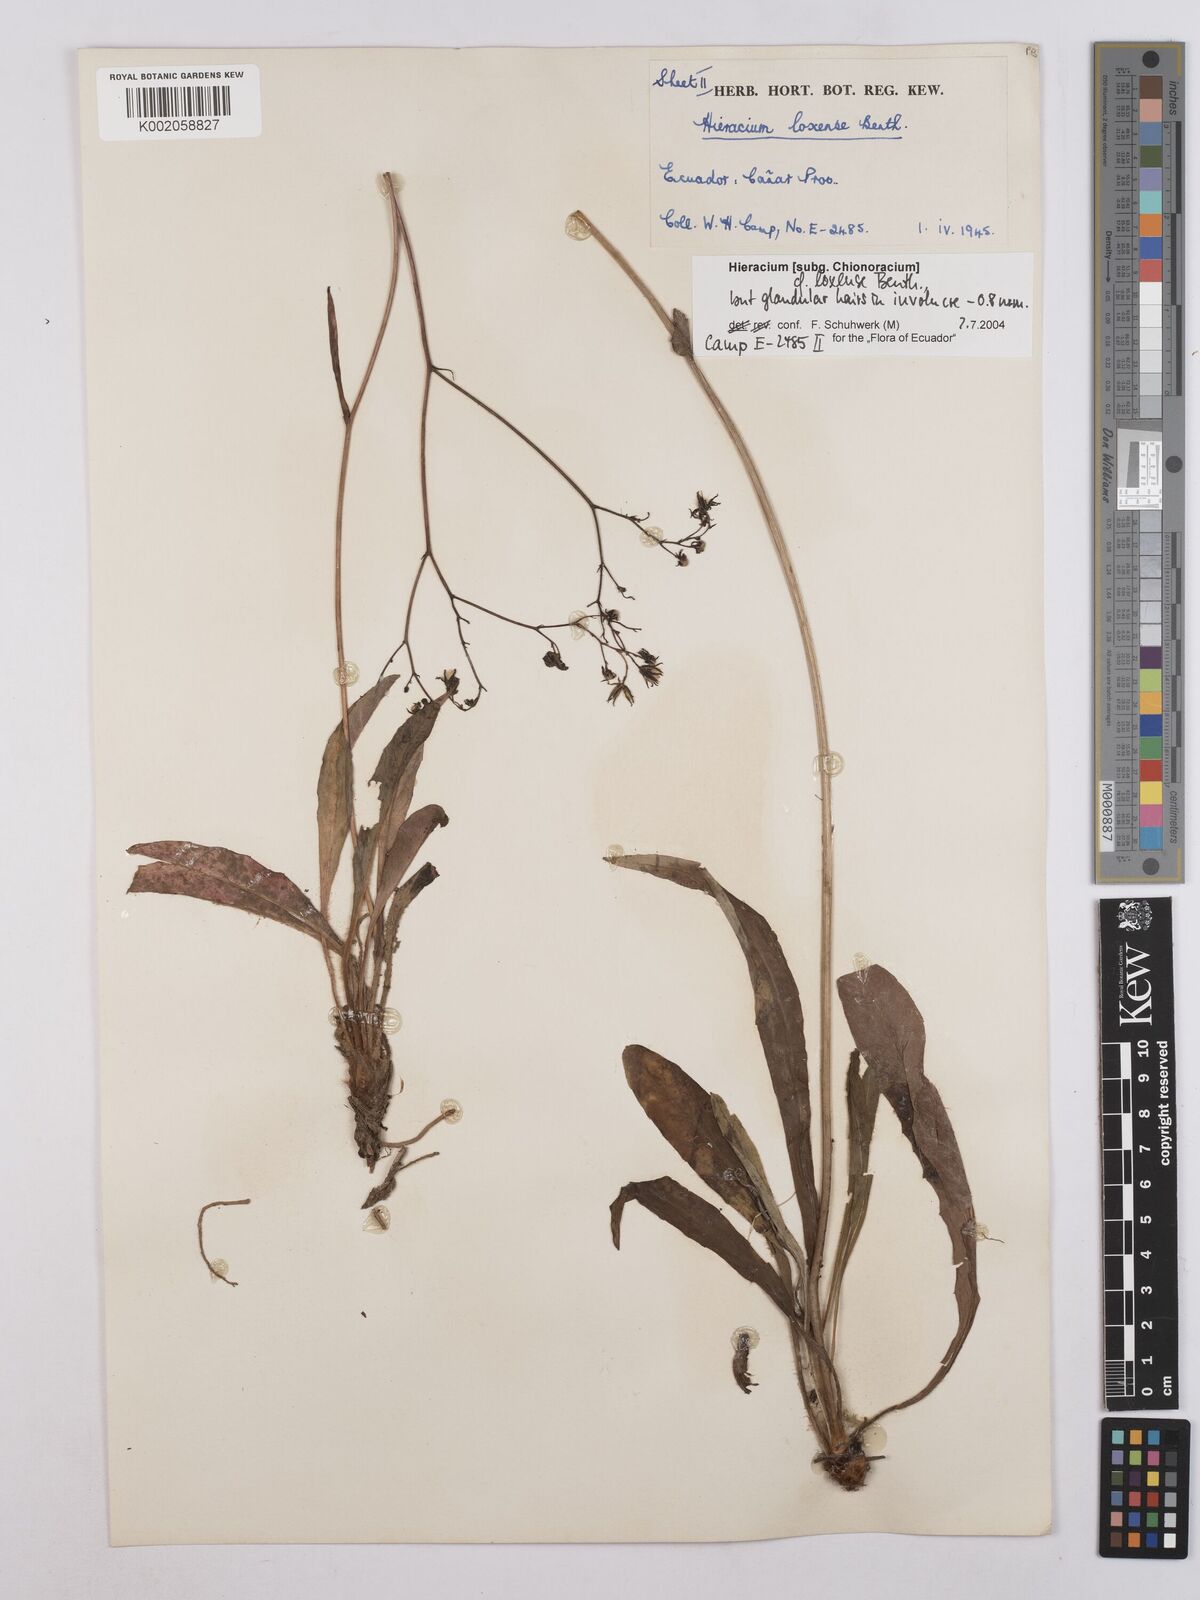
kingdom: Plantae
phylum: Tracheophyta
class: Magnoliopsida
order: Asterales
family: Asteraceae
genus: Hieracium
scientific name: Hieracium lagopus
